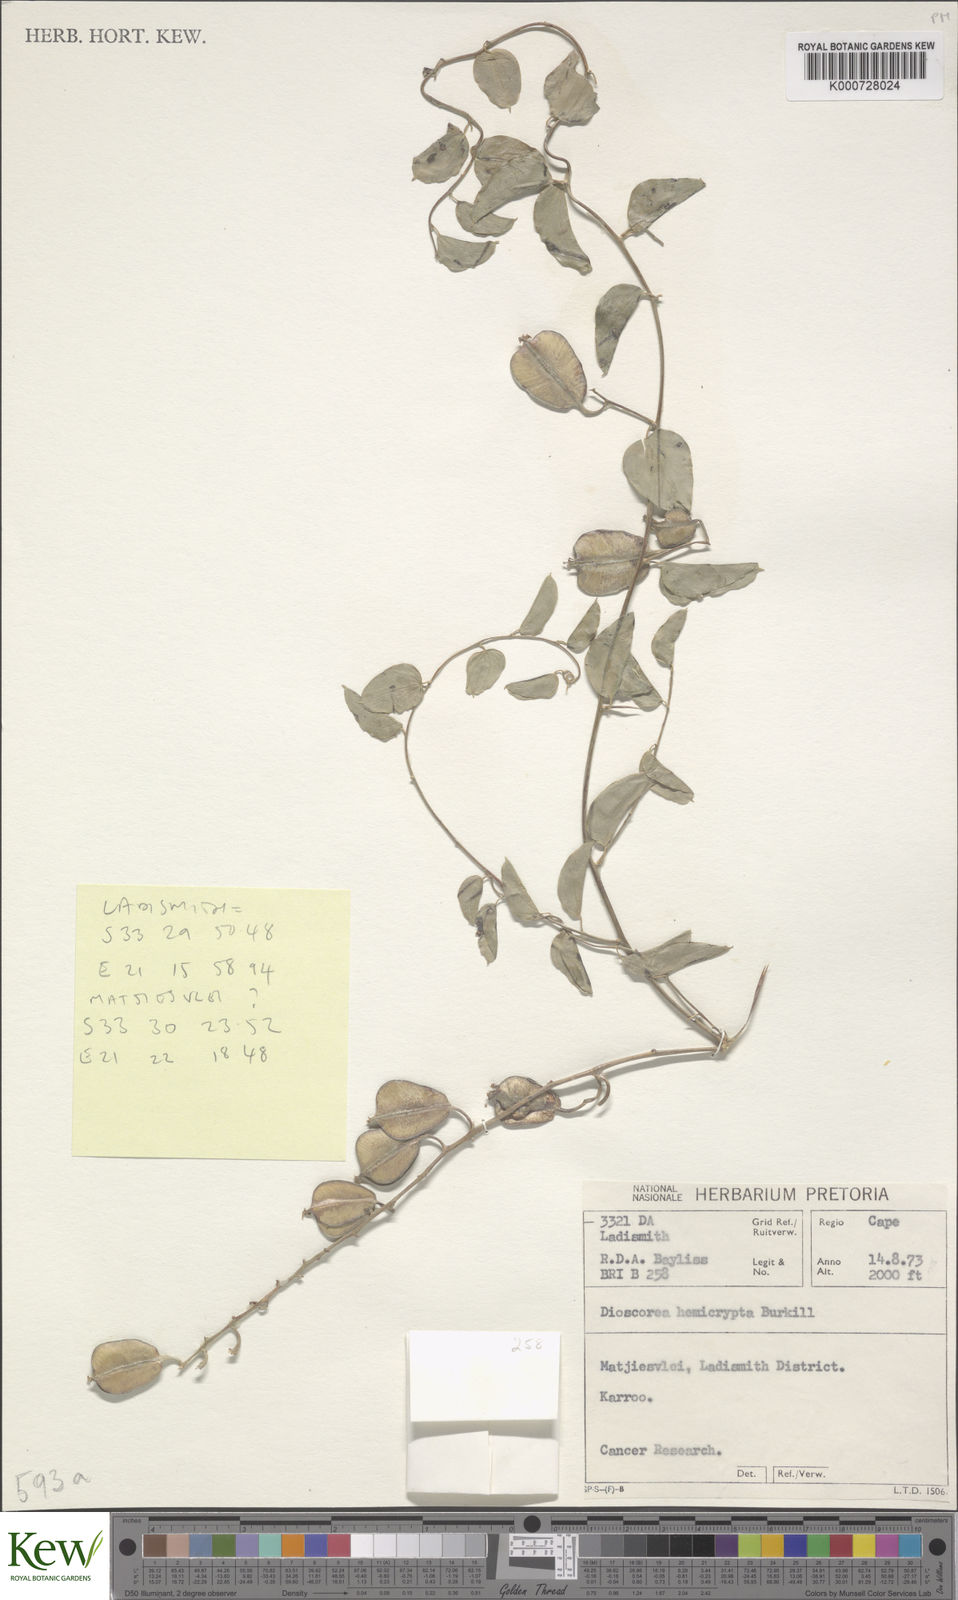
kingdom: Plantae
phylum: Tracheophyta
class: Liliopsida
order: Dioscoreales
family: Dioscoreaceae
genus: Dioscorea
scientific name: Dioscorea hemicrypta
